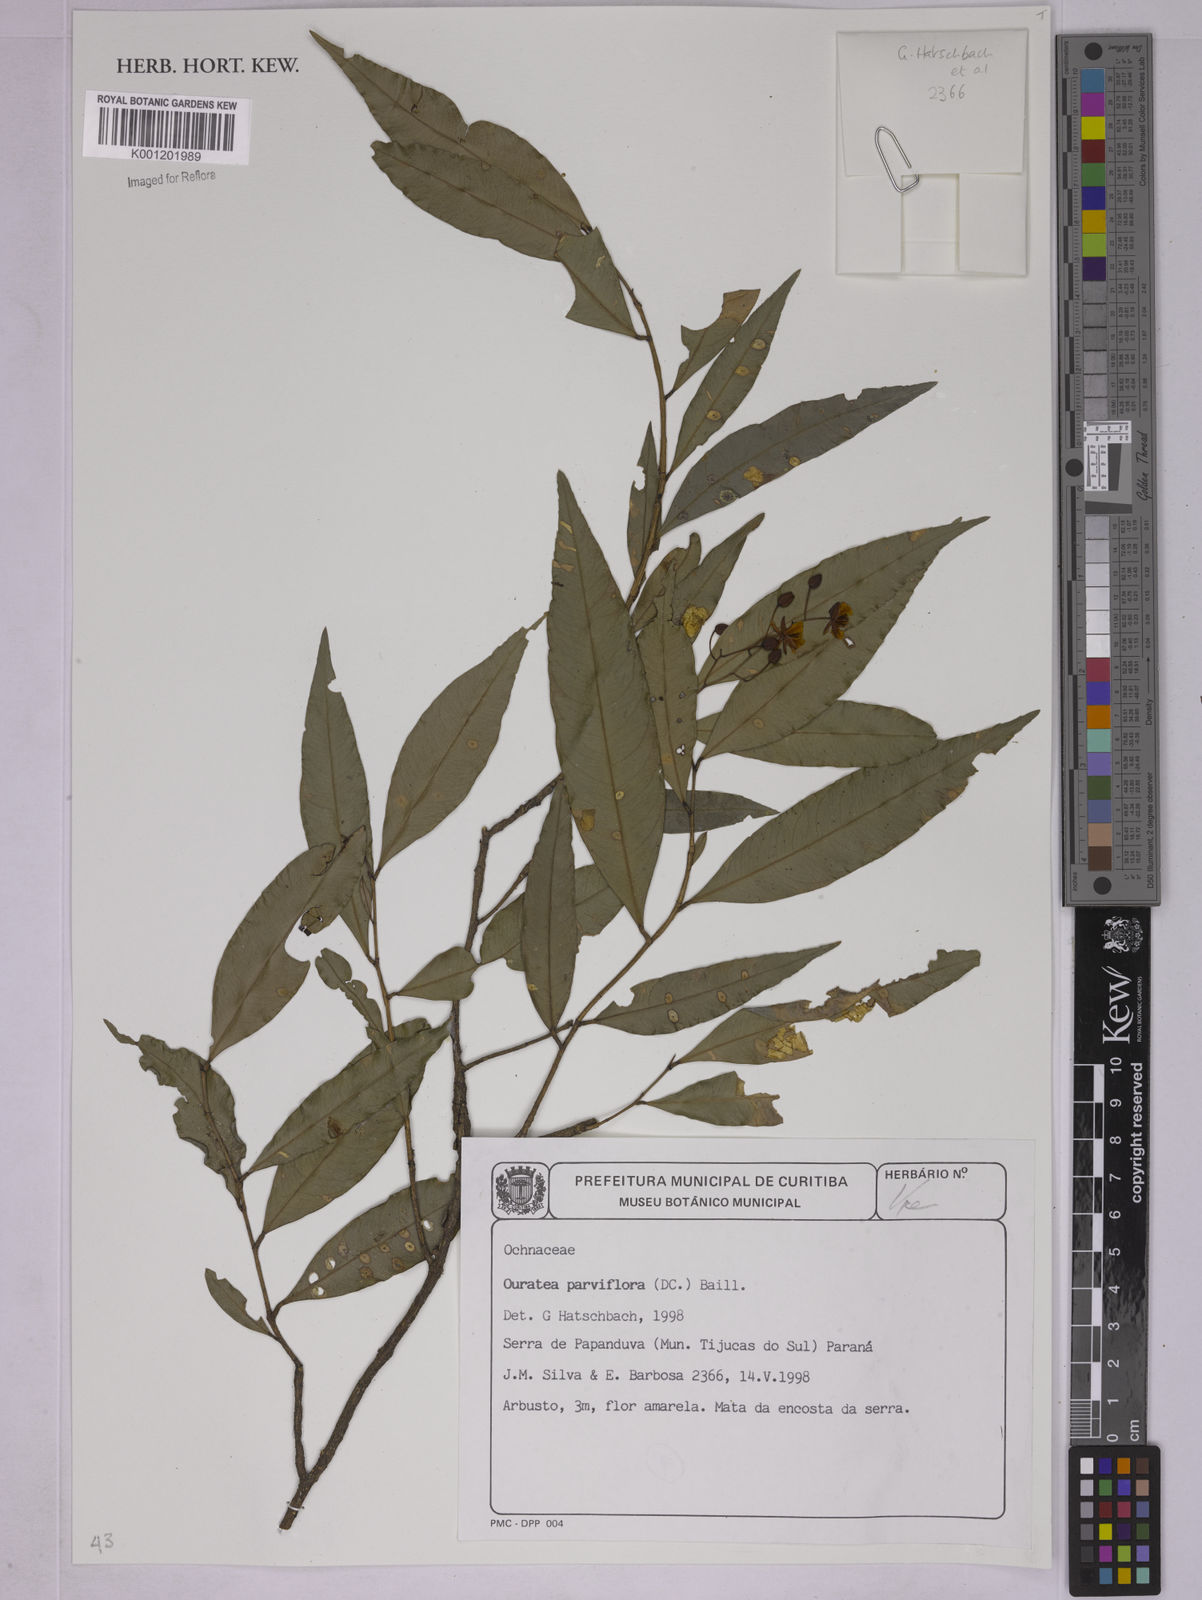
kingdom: Plantae
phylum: Tracheophyta
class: Magnoliopsida
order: Malpighiales
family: Ochnaceae
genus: Ouratea
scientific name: Ouratea parviflora
